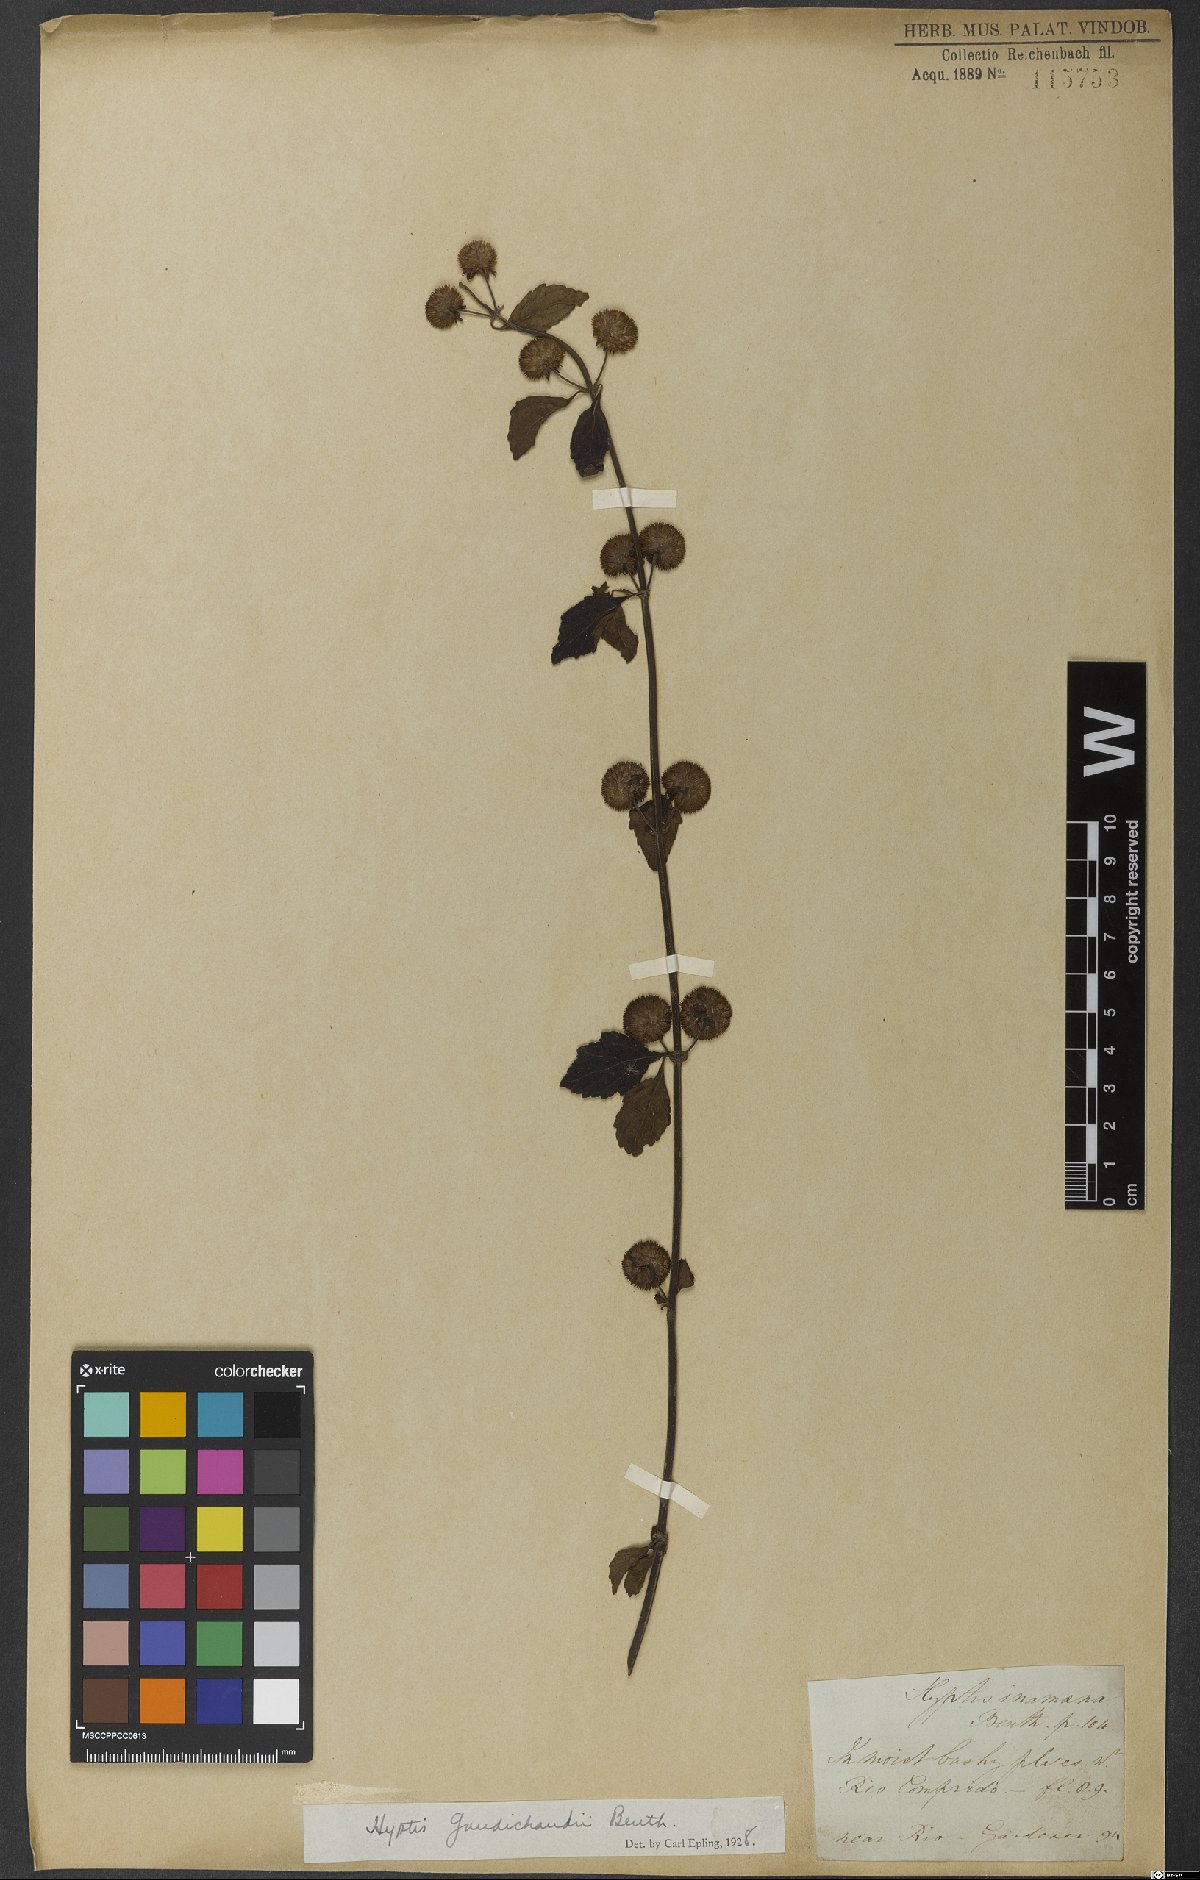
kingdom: Plantae
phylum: Tracheophyta
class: Magnoliopsida
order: Lamiales
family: Lamiaceae
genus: Hyptis
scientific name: Hyptis inodora
